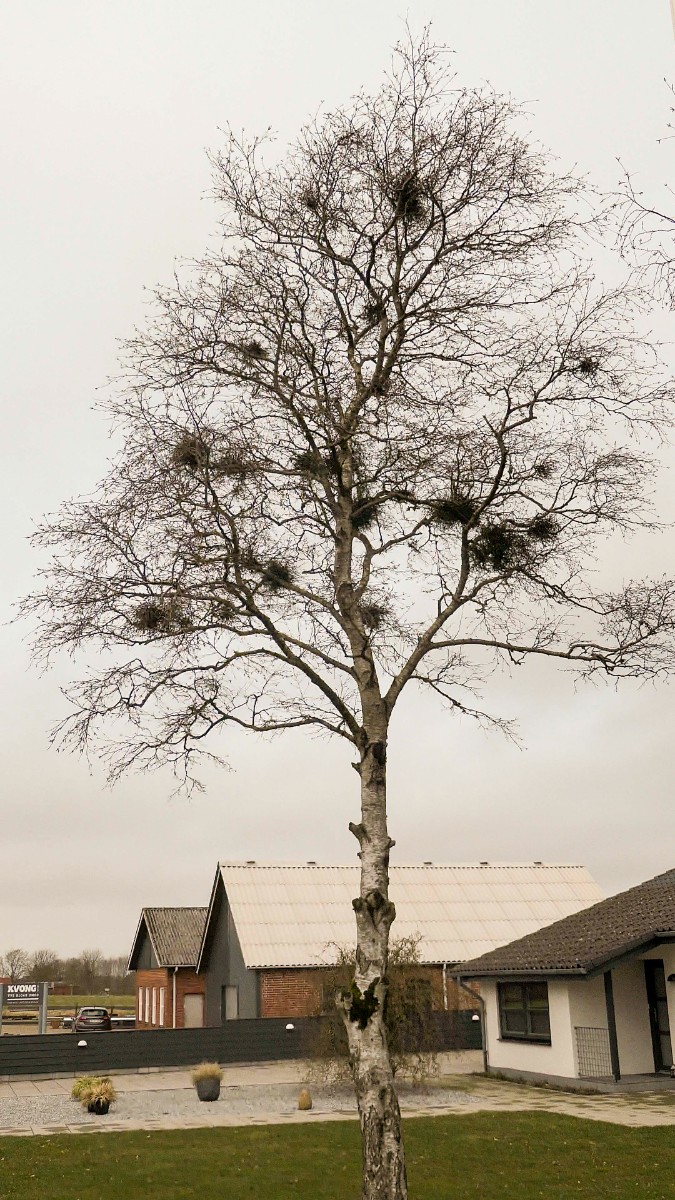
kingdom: Fungi
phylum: Ascomycota
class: Taphrinomycetes
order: Taphrinales
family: Taphrinaceae
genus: Taphrina
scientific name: Taphrina betulina
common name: hekse-sækdug
